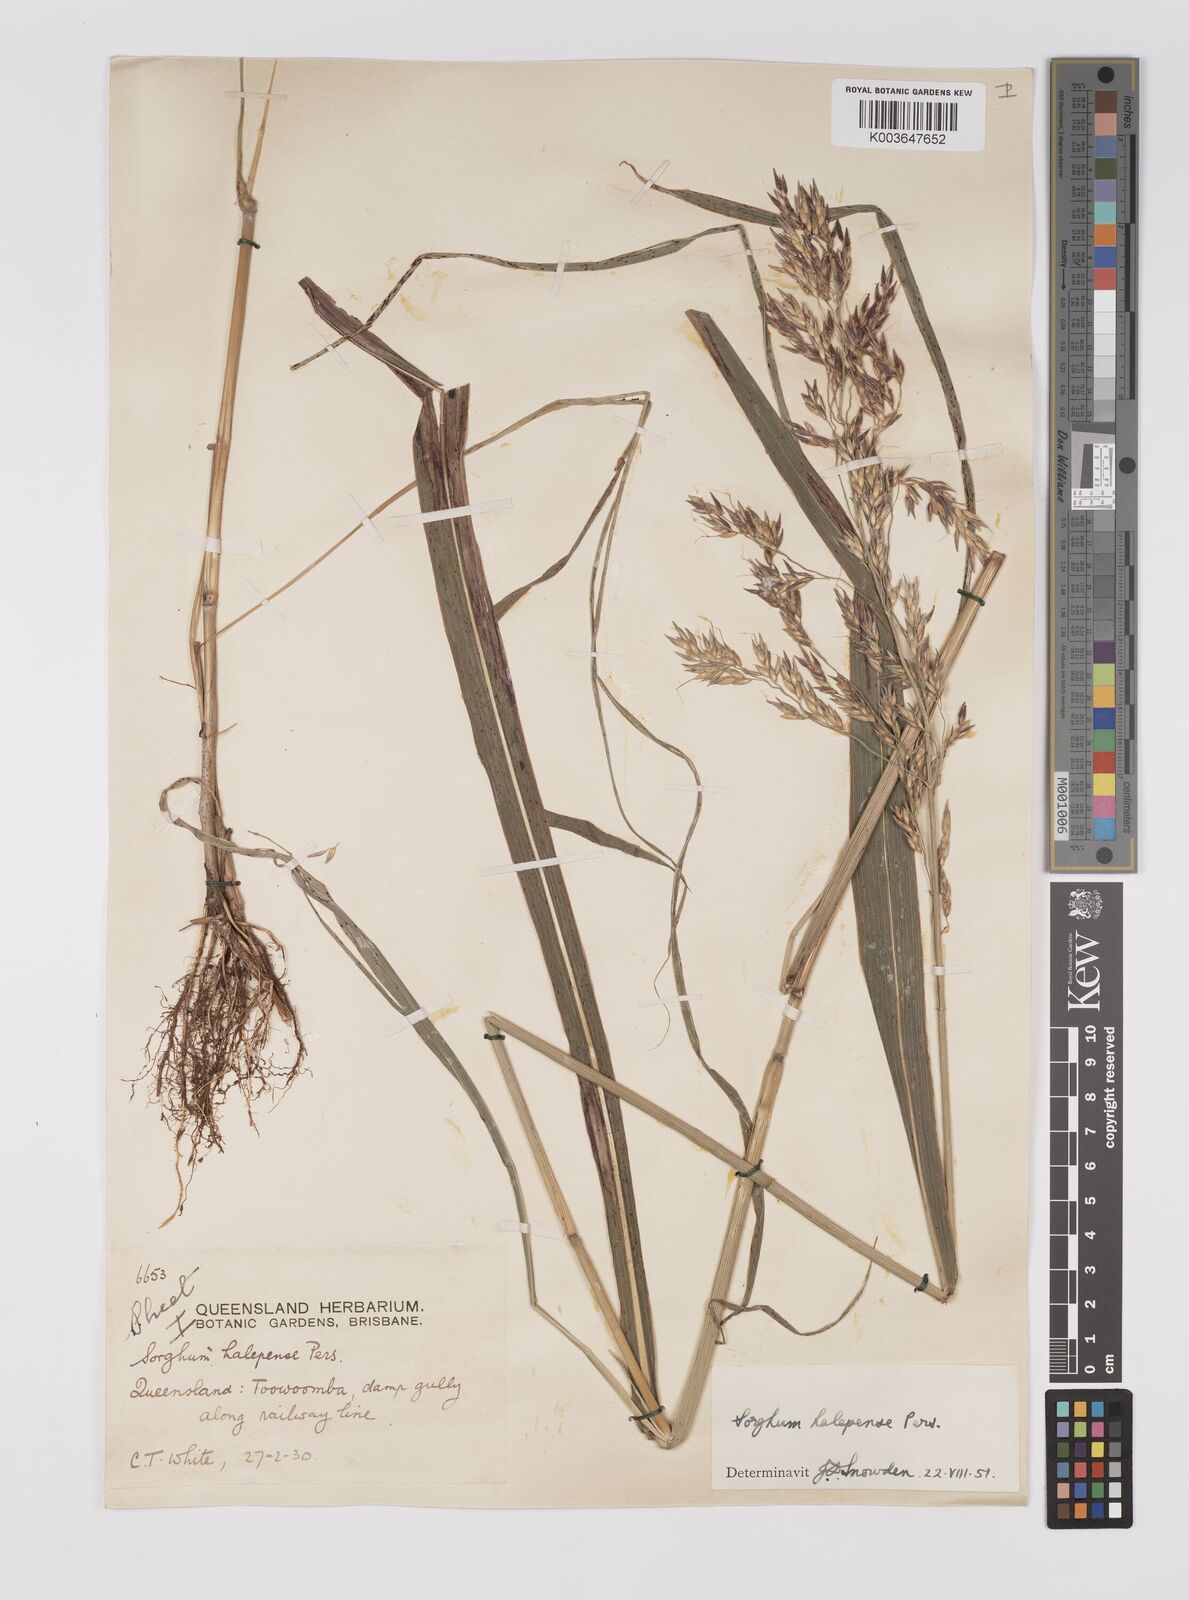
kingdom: Plantae
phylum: Tracheophyta
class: Liliopsida
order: Poales
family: Poaceae
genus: Sorghum
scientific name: Sorghum halepense
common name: Johnson-grass
